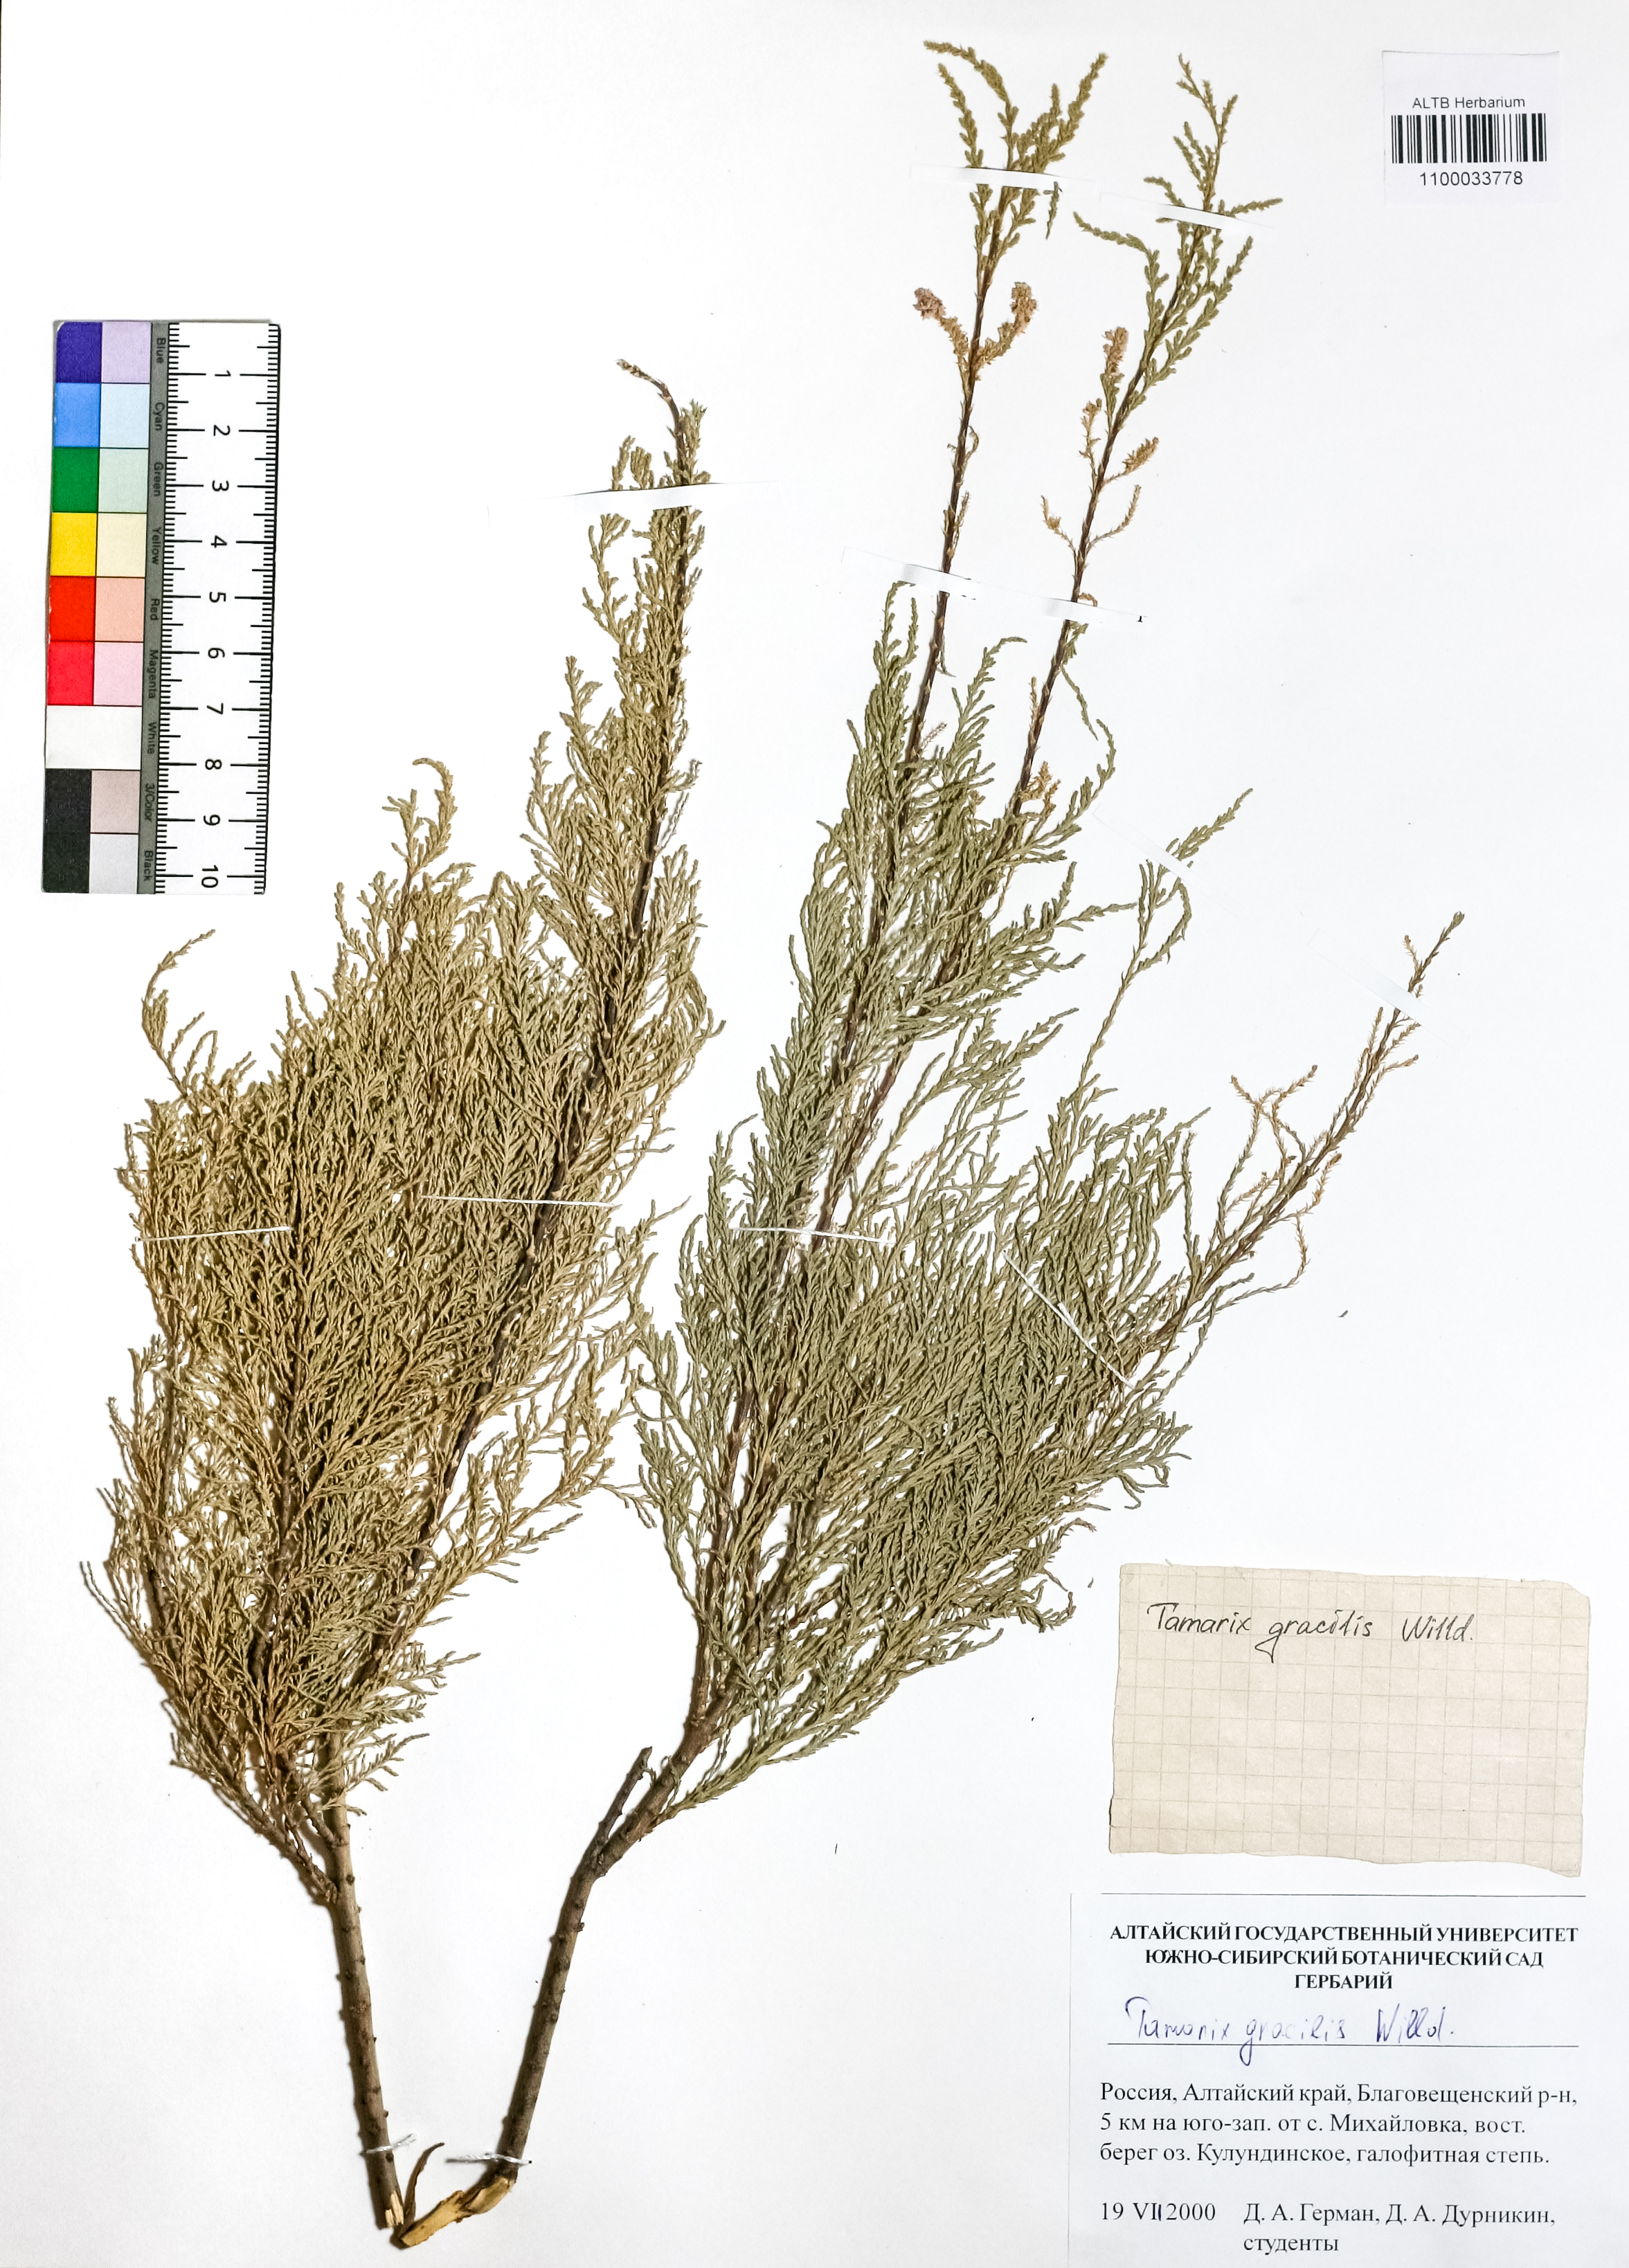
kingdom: Plantae
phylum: Tracheophyta
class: Magnoliopsida
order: Caryophyllales
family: Tamaricaceae
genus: Tamarix
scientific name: Tamarix gracilis
